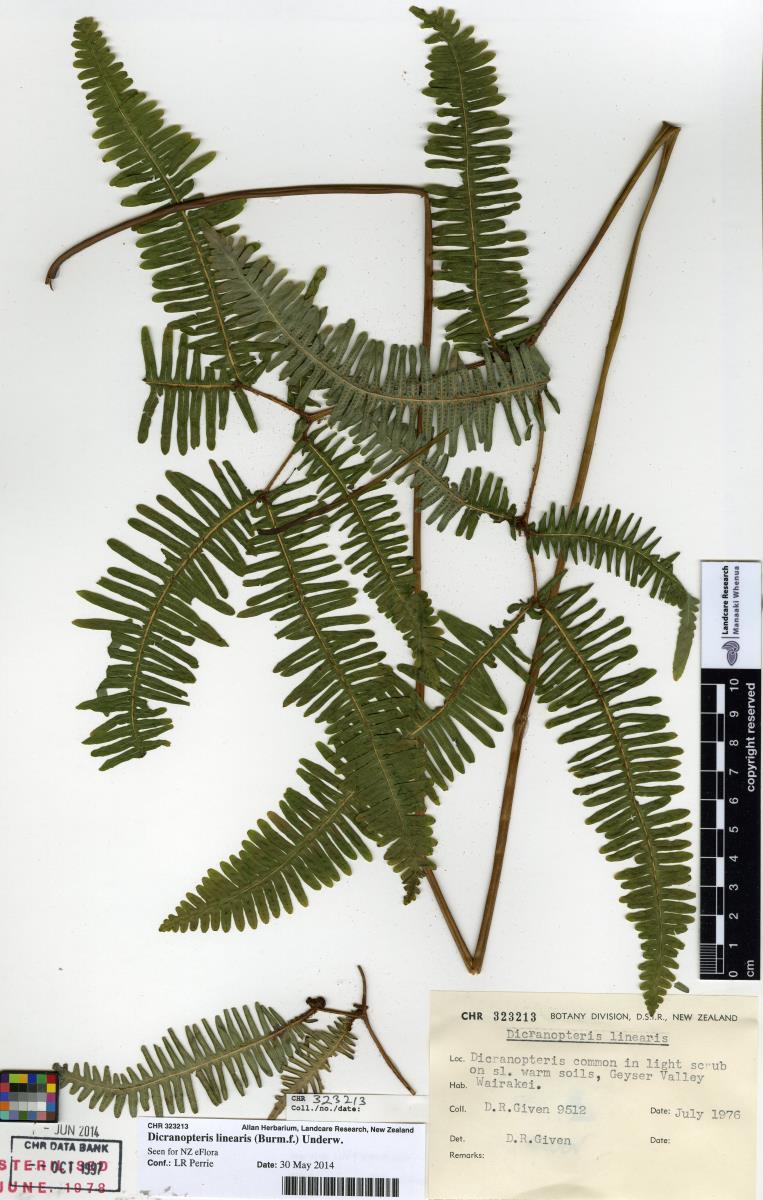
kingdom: Plantae
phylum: Tracheophyta
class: Polypodiopsida
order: Gleicheniales
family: Gleicheniaceae
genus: Dicranopteris
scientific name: Dicranopteris linearis
